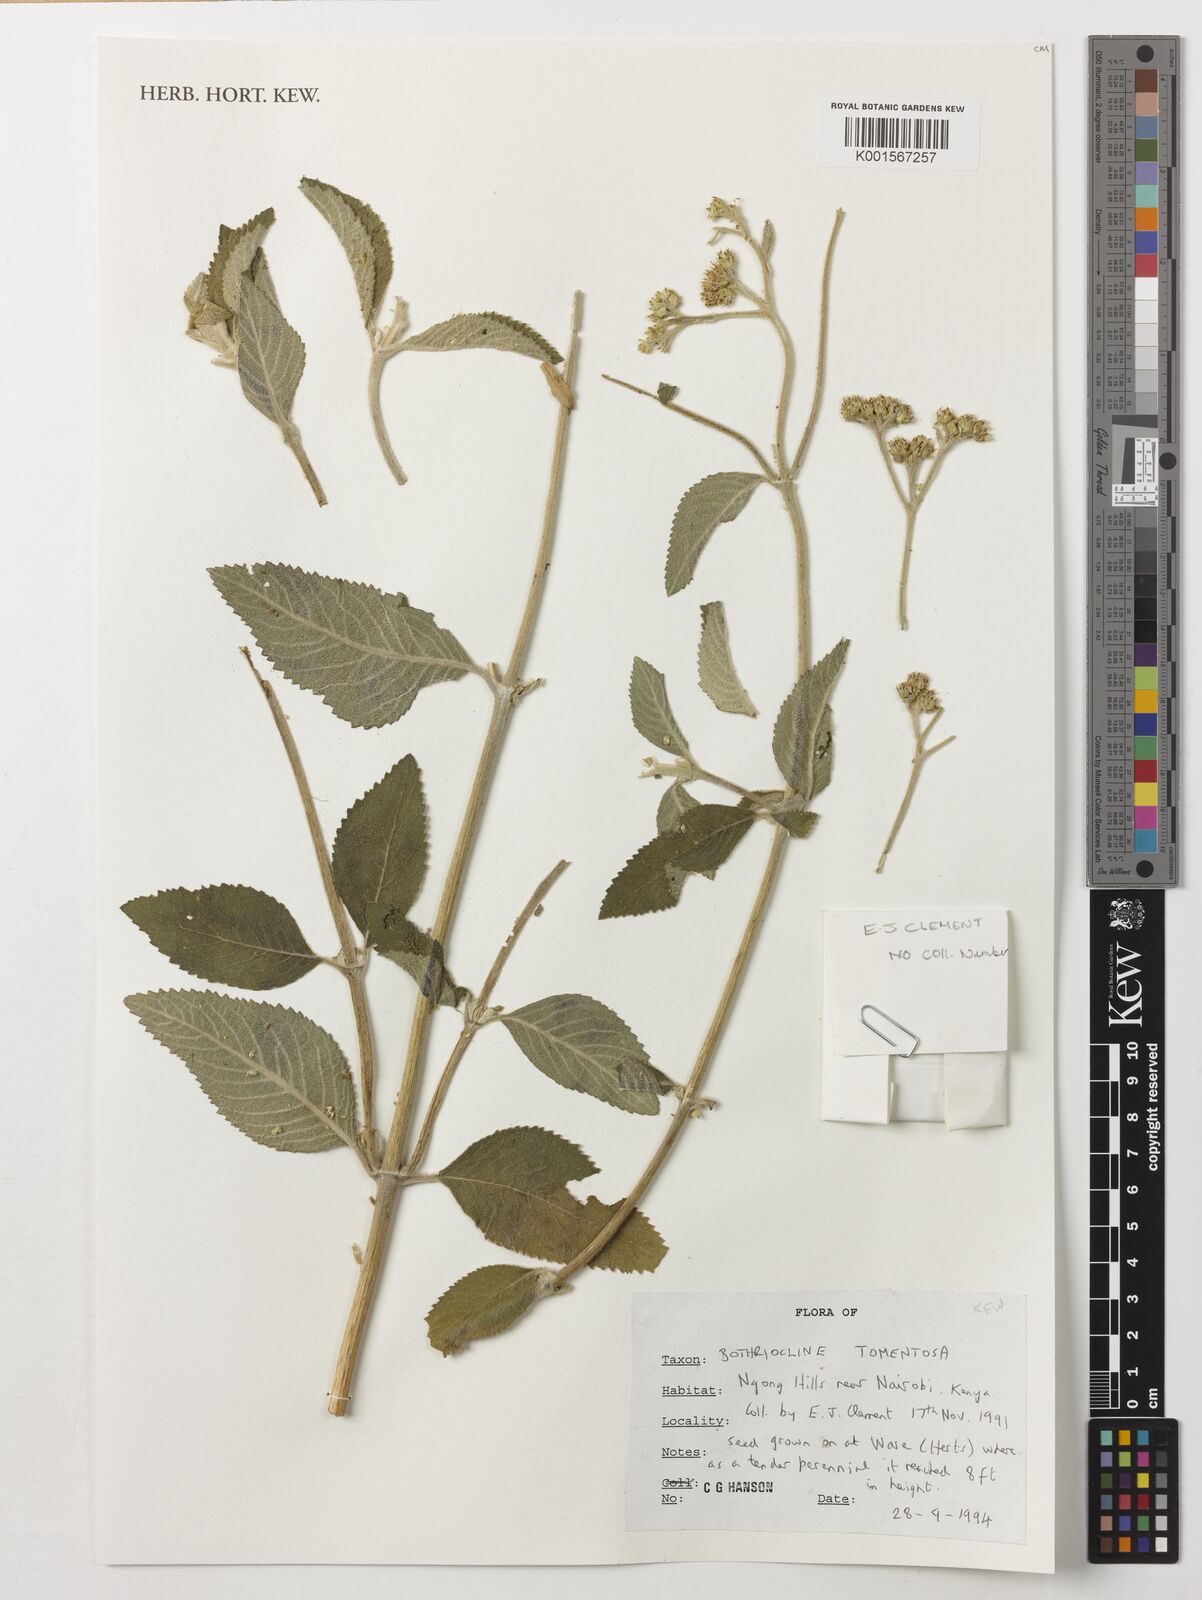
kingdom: Plantae
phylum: Tracheophyta
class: Magnoliopsida
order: Asterales
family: Asteraceae
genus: Bothriocline
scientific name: Bothriocline longipes
